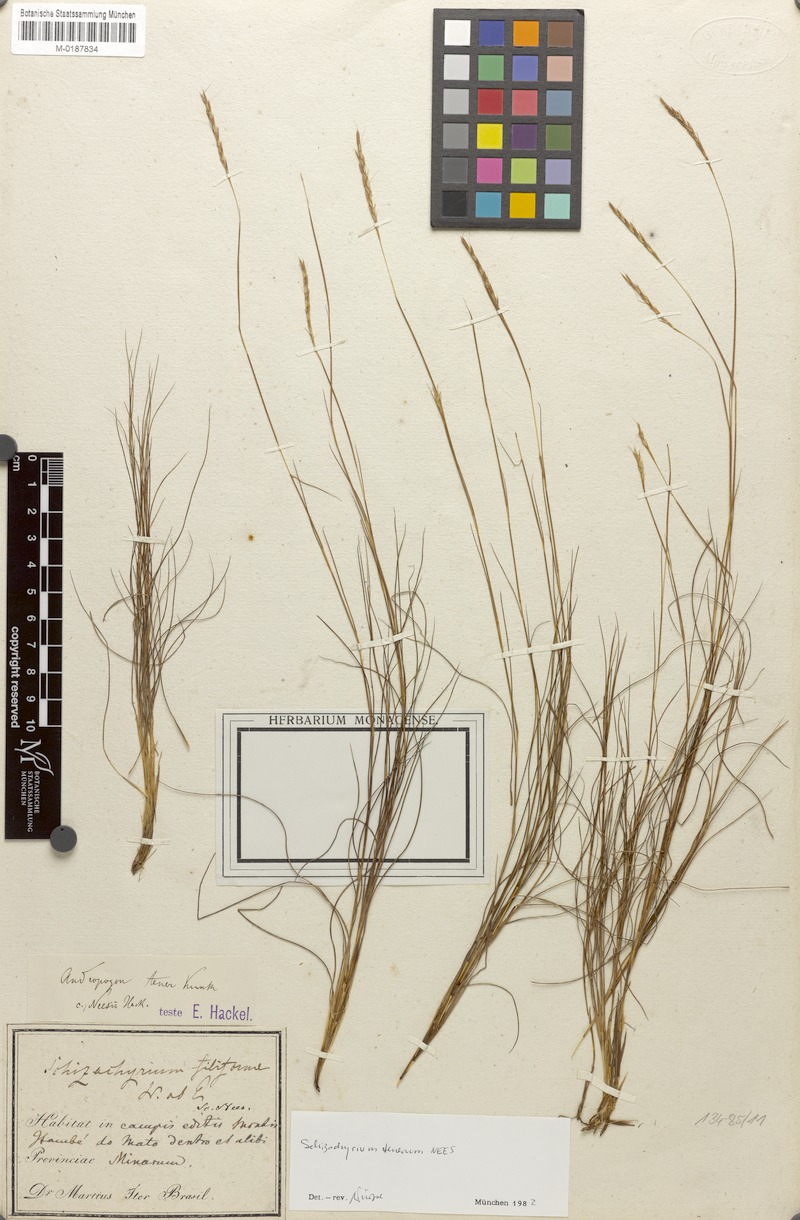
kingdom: Plantae
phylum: Tracheophyta
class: Liliopsida
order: Poales
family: Poaceae
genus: Andropogon
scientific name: Andropogon tener
